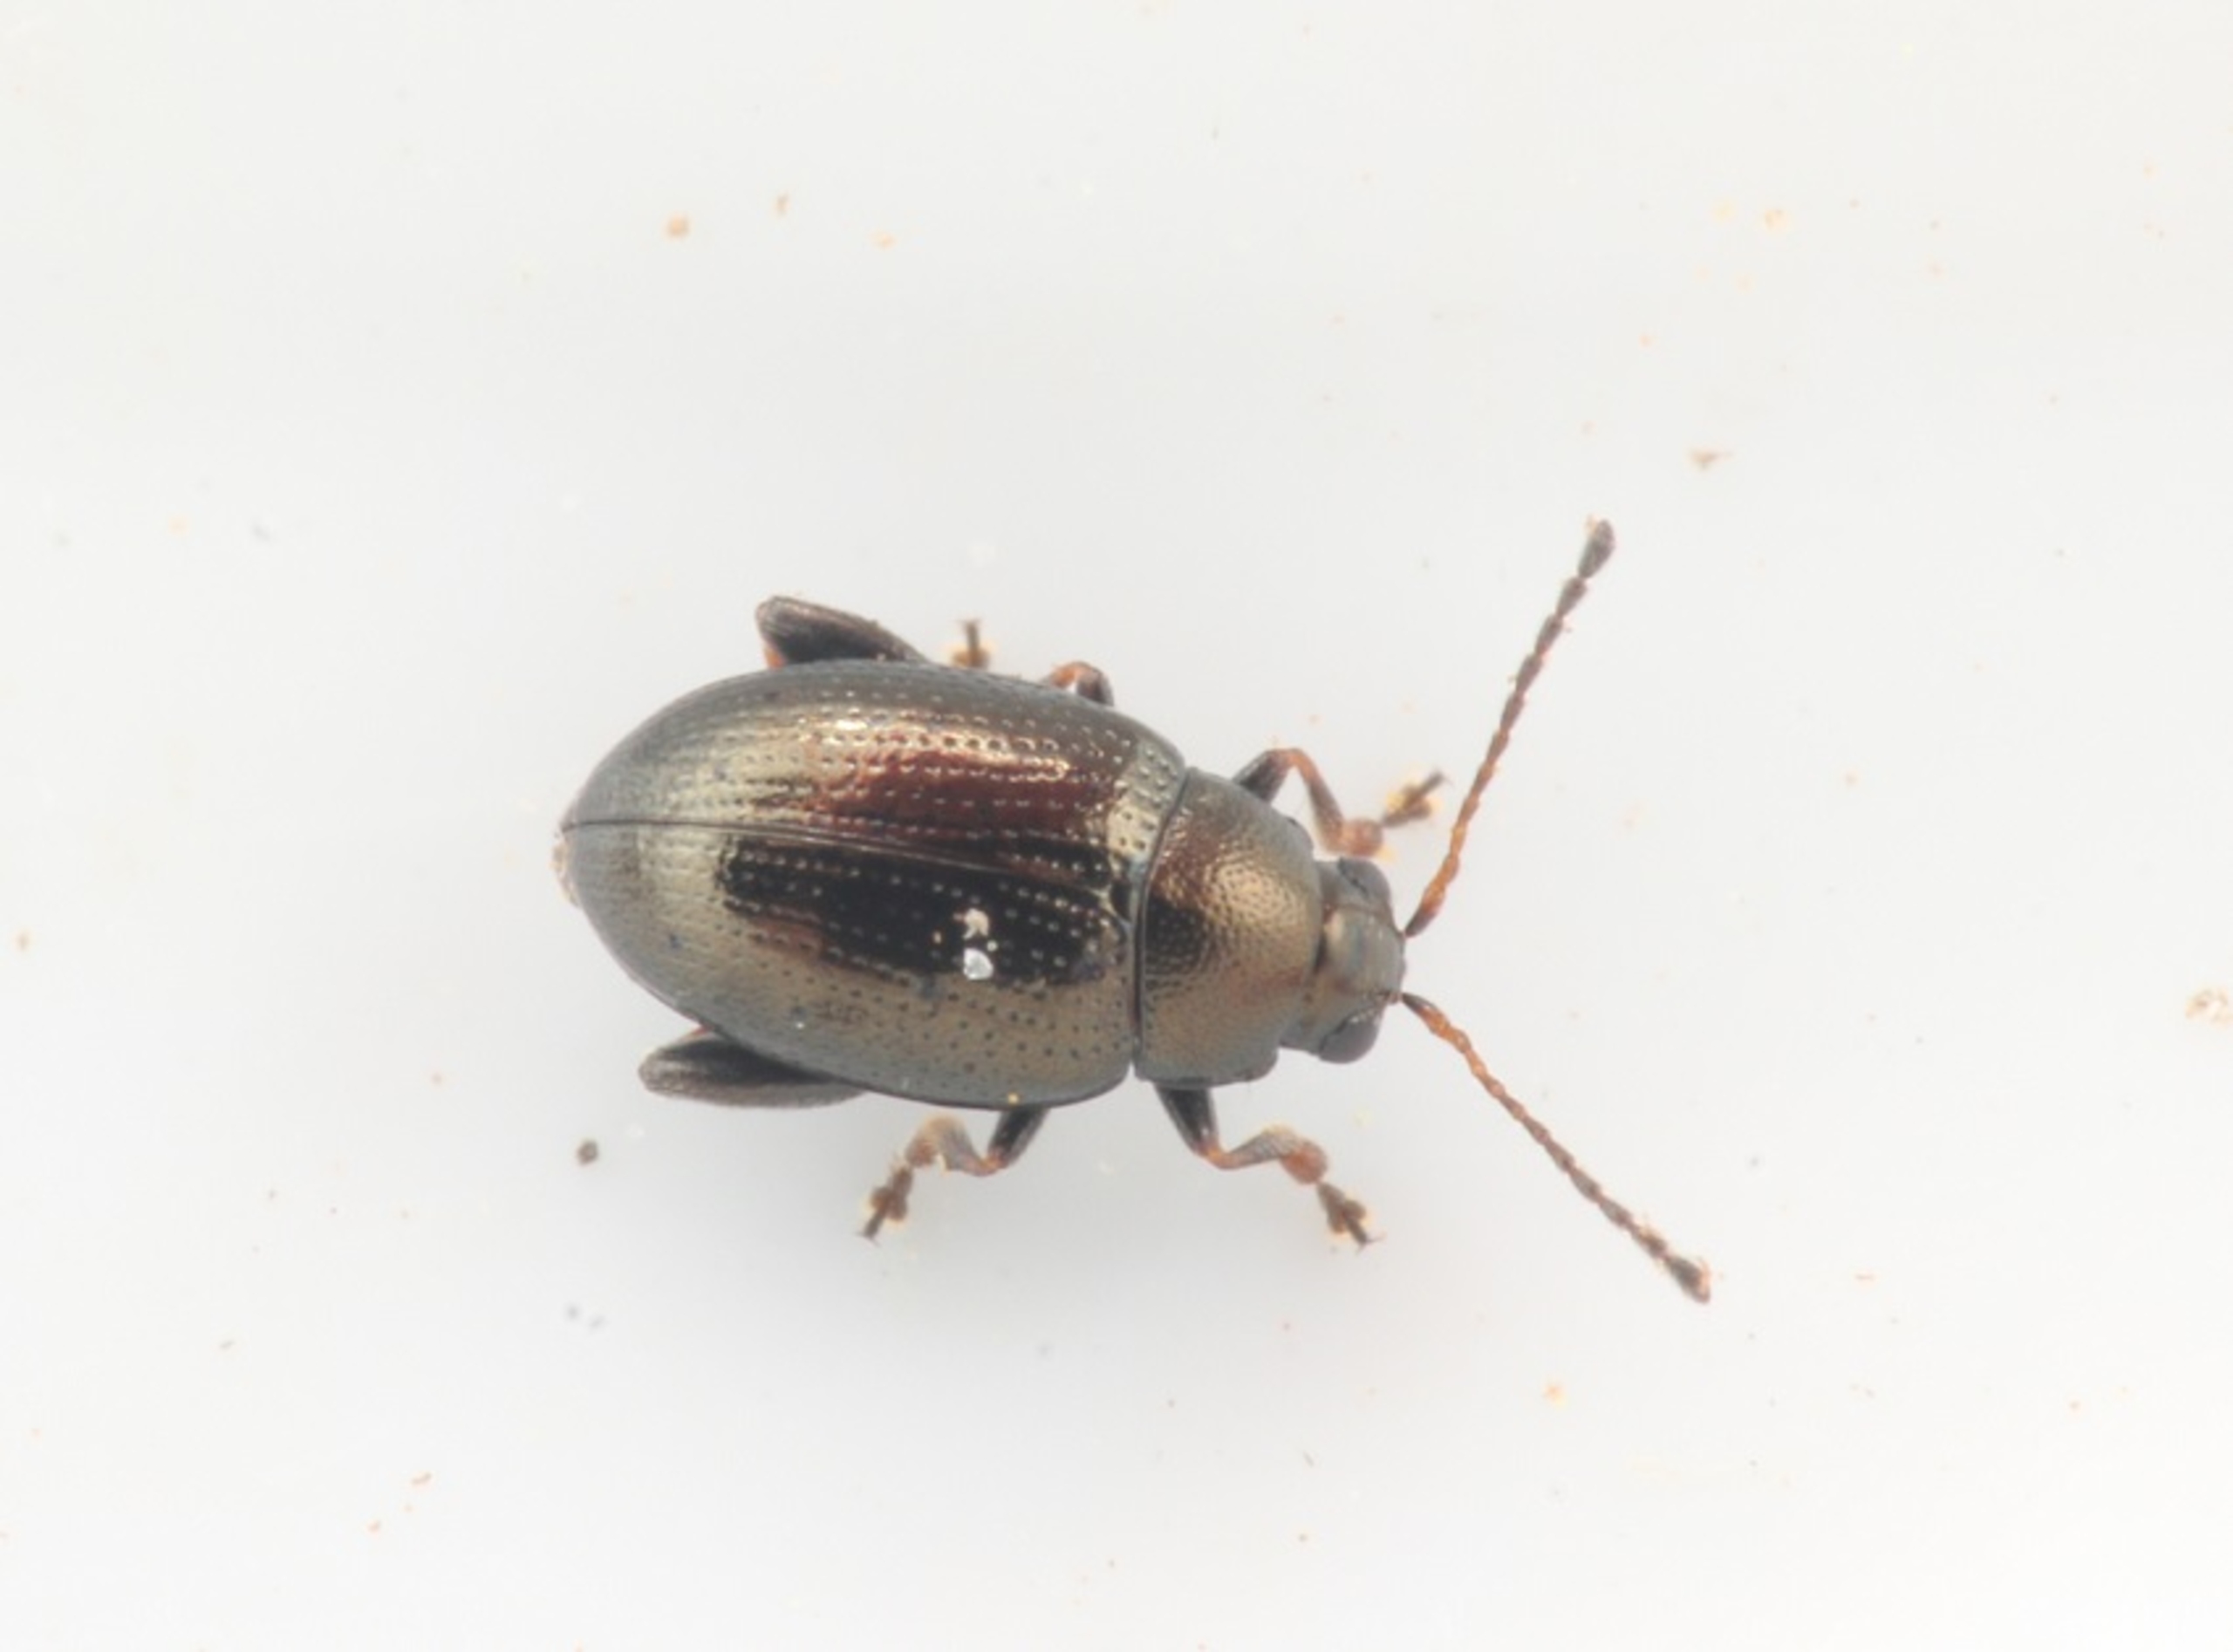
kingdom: Animalia
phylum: Arthropoda
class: Insecta
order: Coleoptera
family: Chrysomelidae
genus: Chaetocnema
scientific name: Chaetocnema concinna
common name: Bedejordloppe
